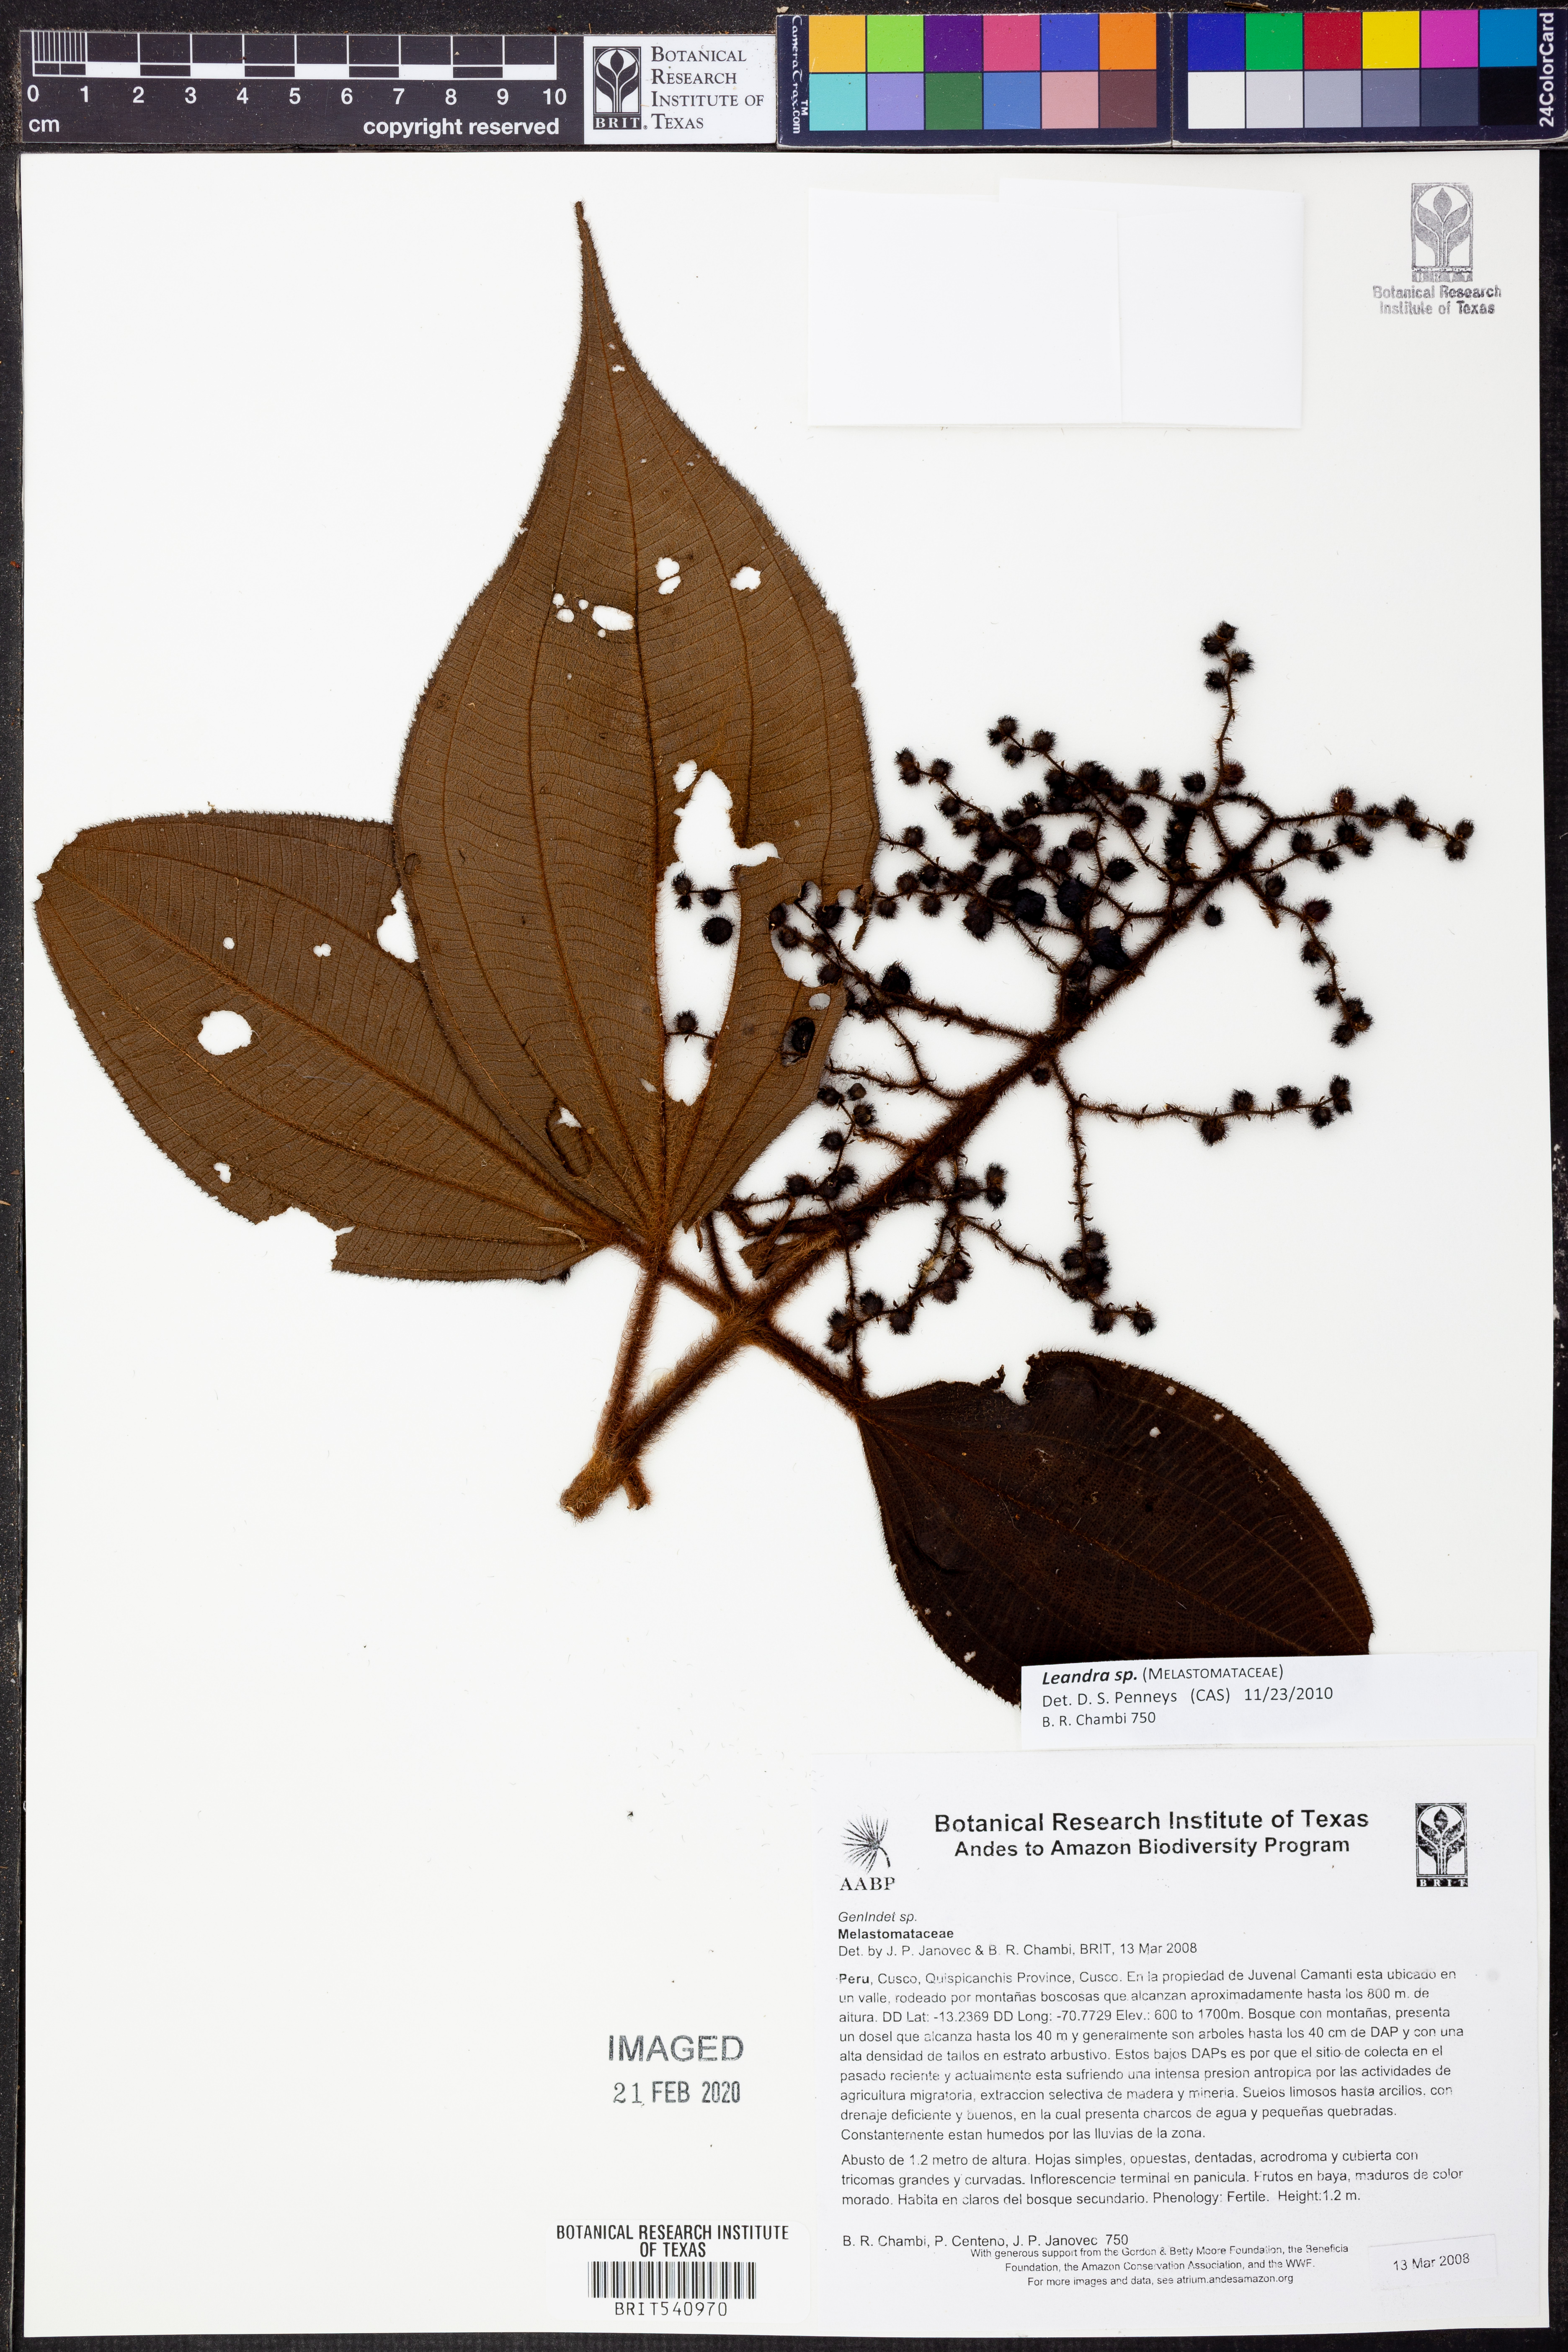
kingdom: Plantae
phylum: Tracheophyta
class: Magnoliopsida
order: Myrtales
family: Melastomataceae
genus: Miconia
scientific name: Miconia
